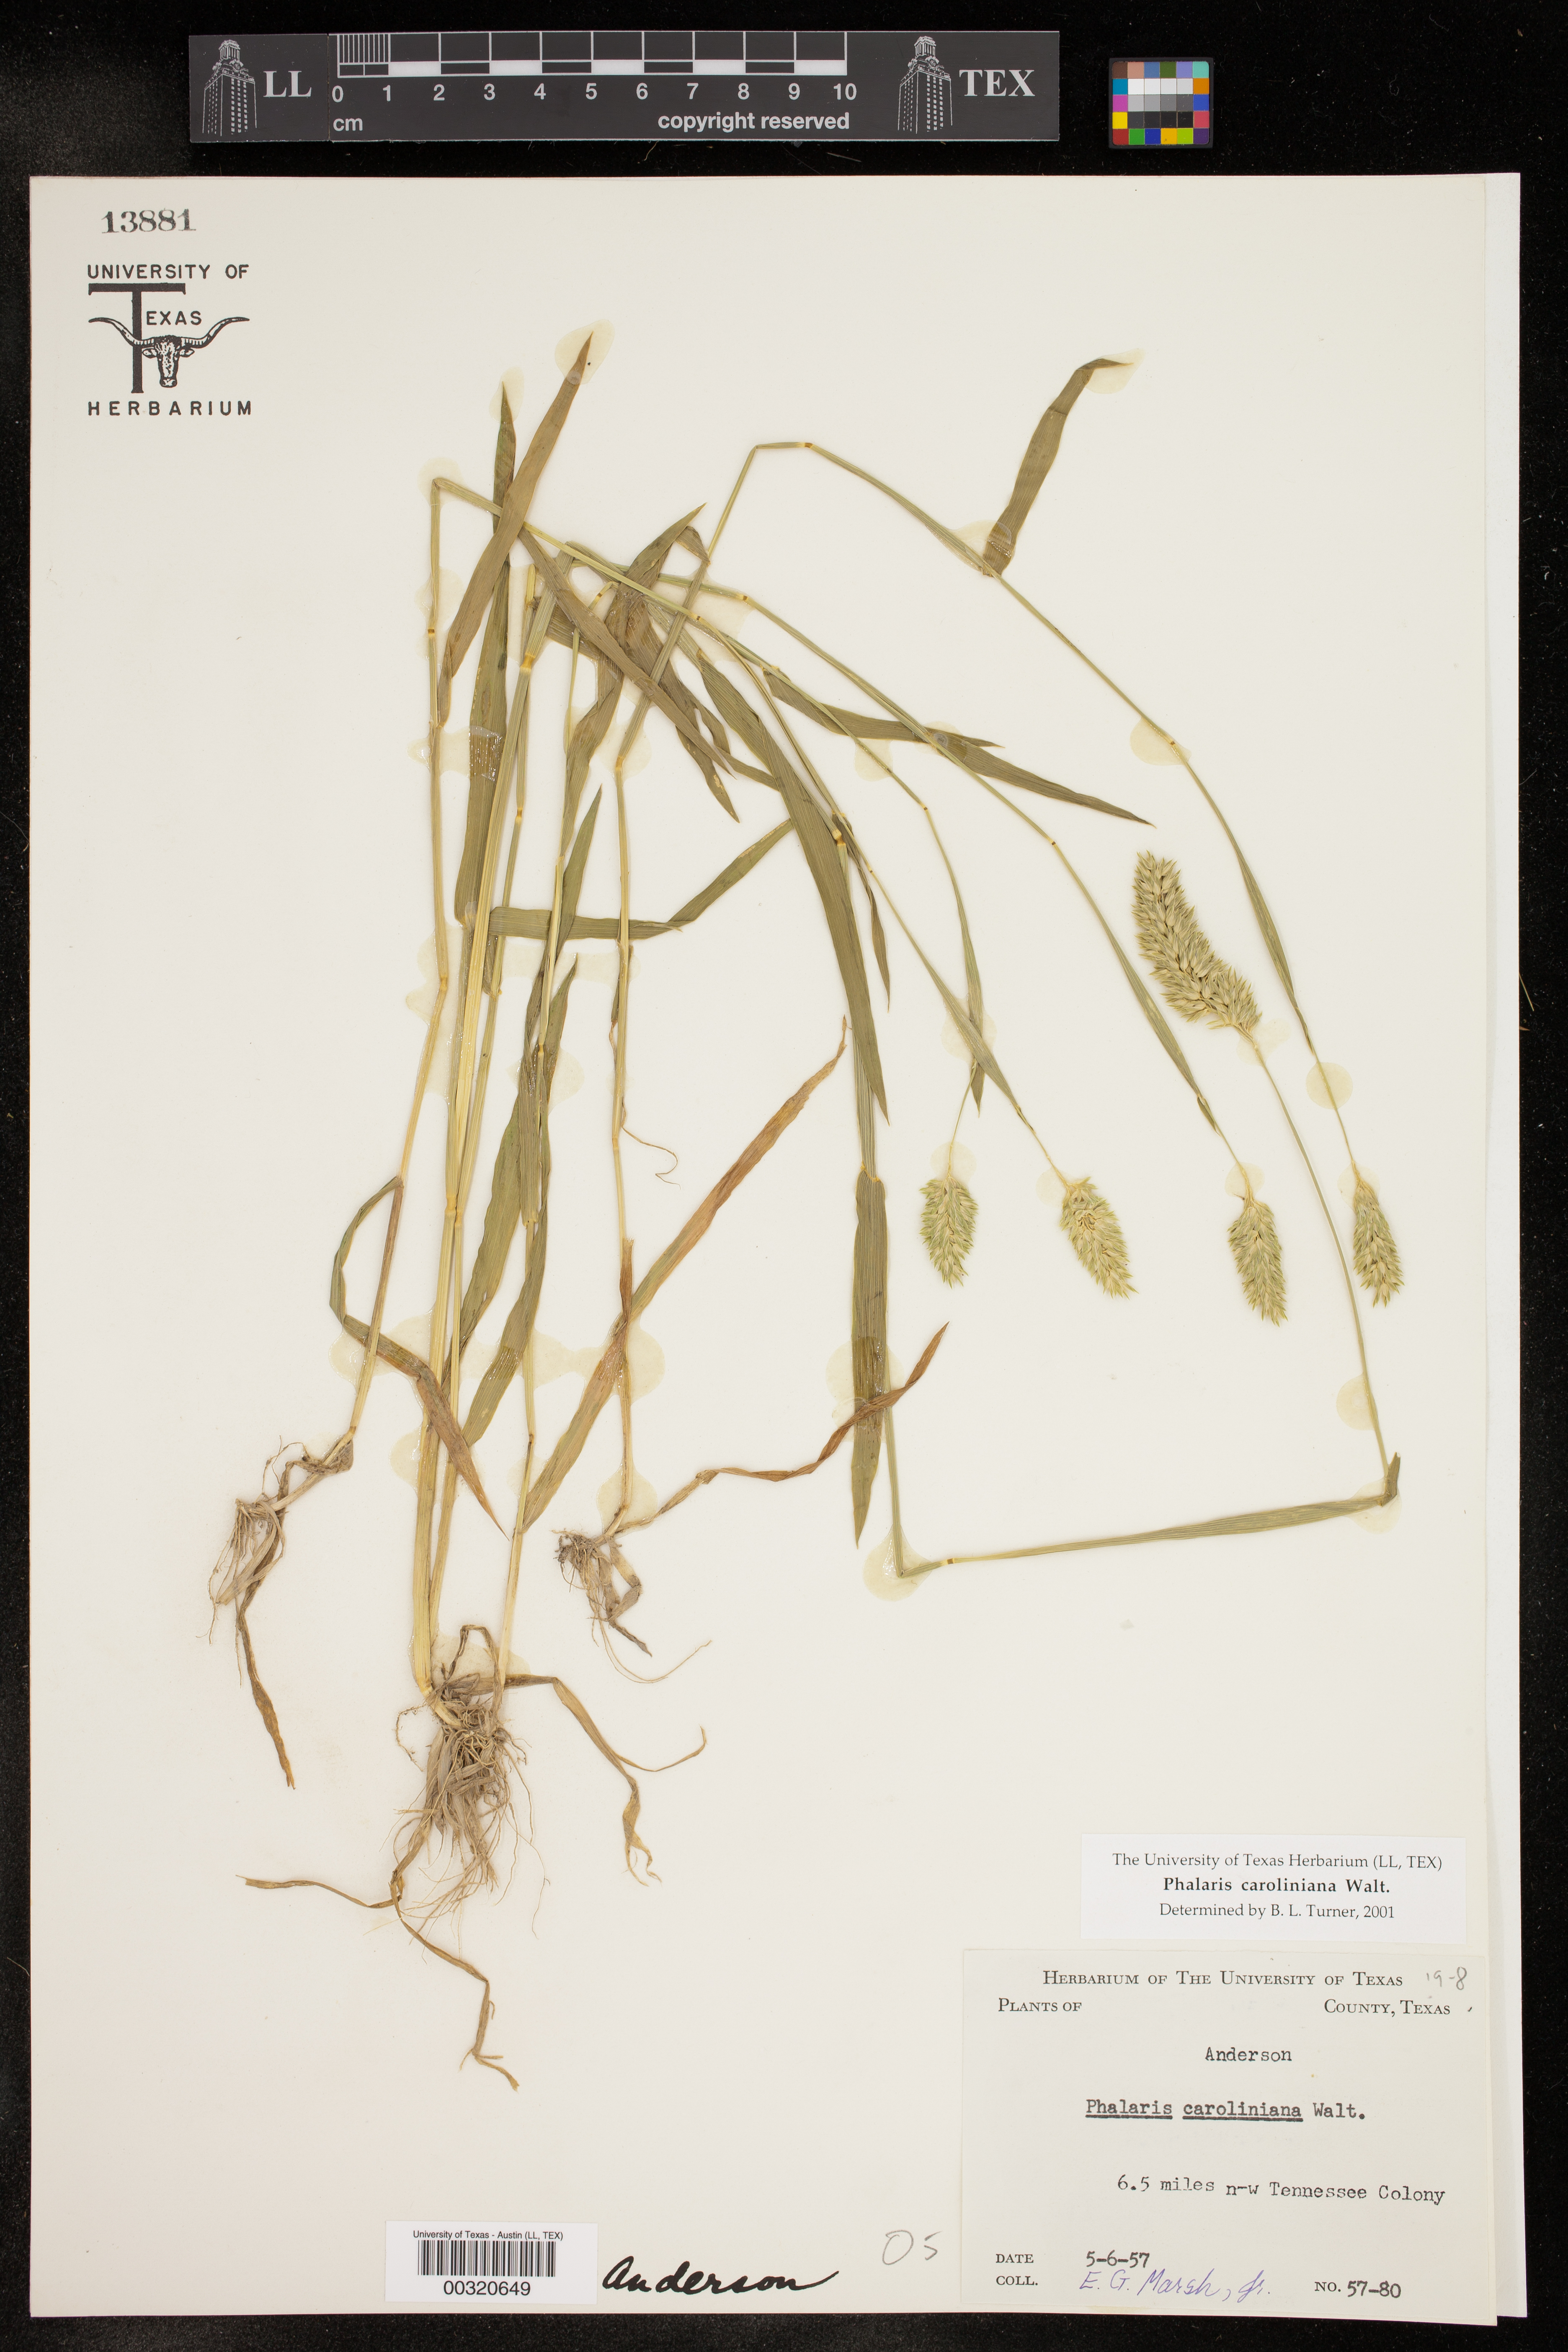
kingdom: Plantae
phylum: Tracheophyta
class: Liliopsida
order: Poales
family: Poaceae
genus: Phalaris
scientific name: Phalaris caroliniana
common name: May grass
